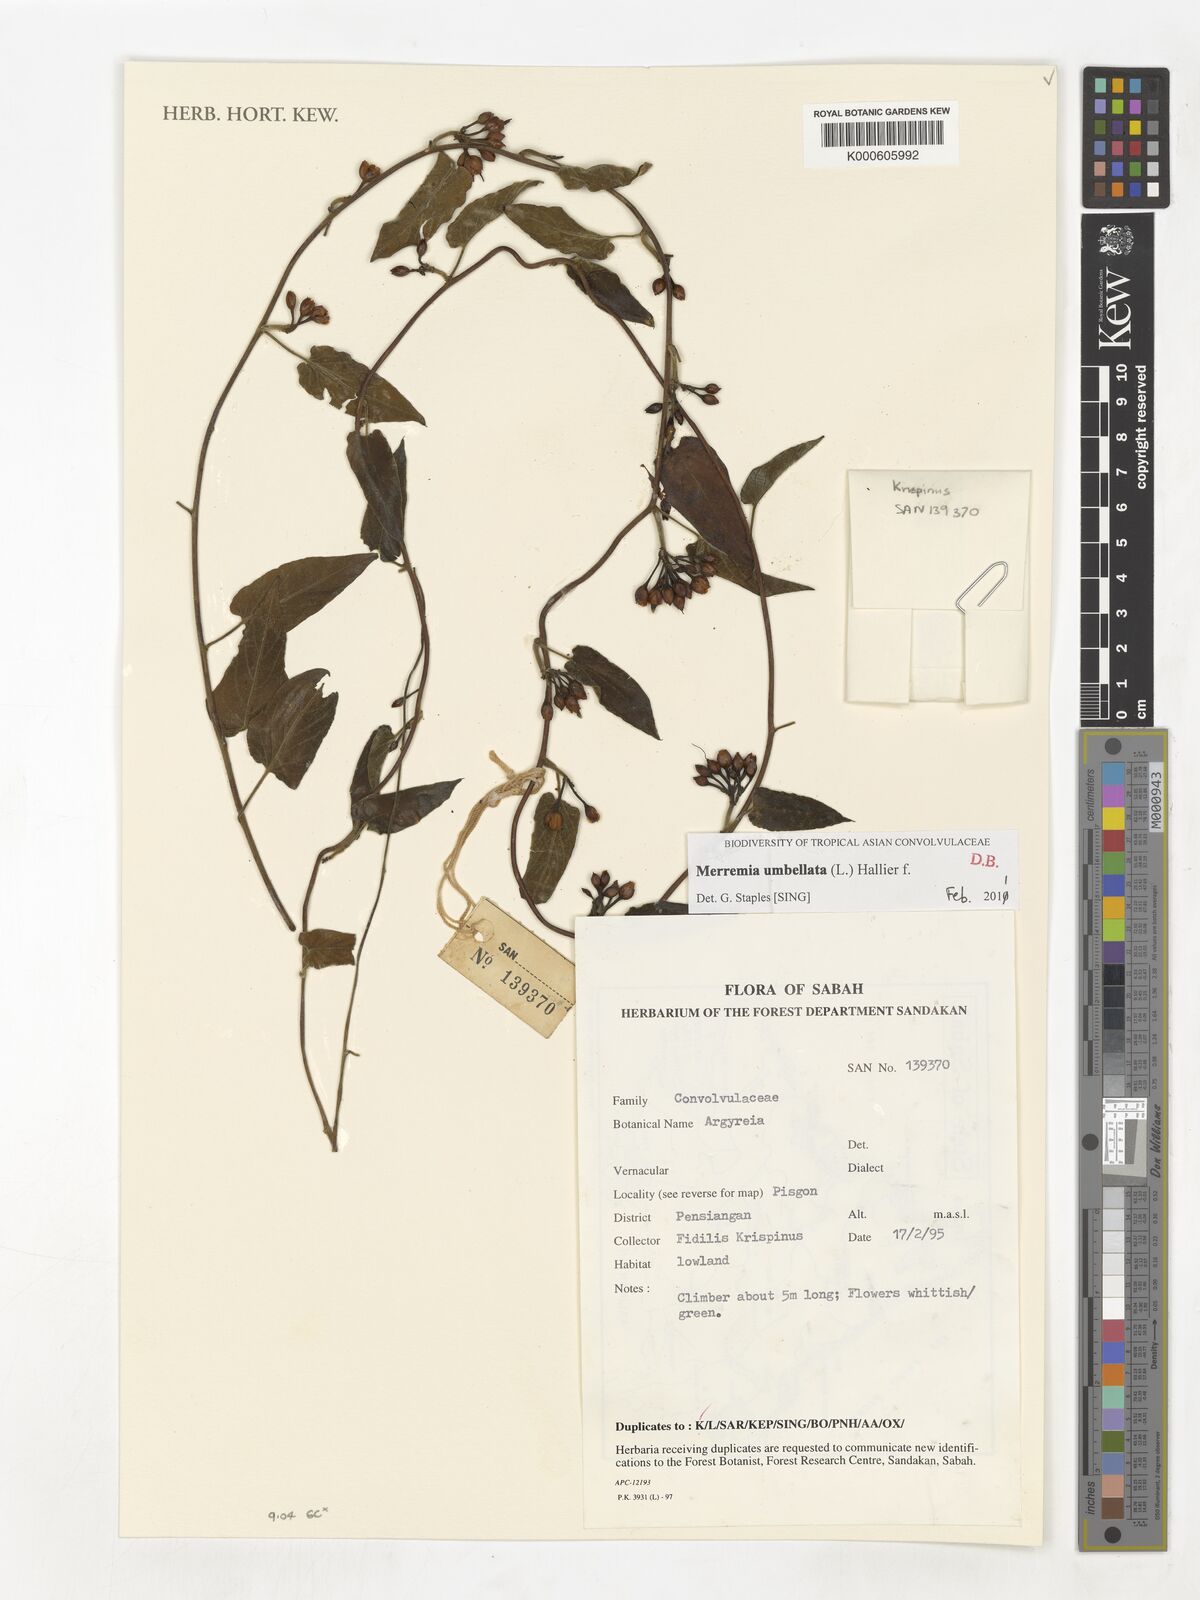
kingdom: Plantae
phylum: Tracheophyta
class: Magnoliopsida
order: Solanales
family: Convolvulaceae
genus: Camonea
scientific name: Camonea umbellata
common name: Hogvine
